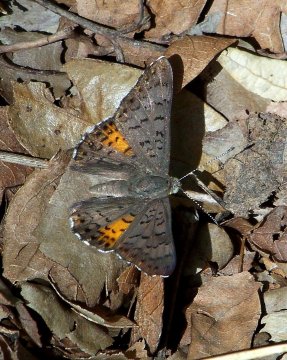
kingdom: Animalia
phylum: Arthropoda
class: Insecta
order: Lepidoptera
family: Sesiidae
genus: Sesia
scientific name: Sesia Emesis ares
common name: Ares Metalmark
